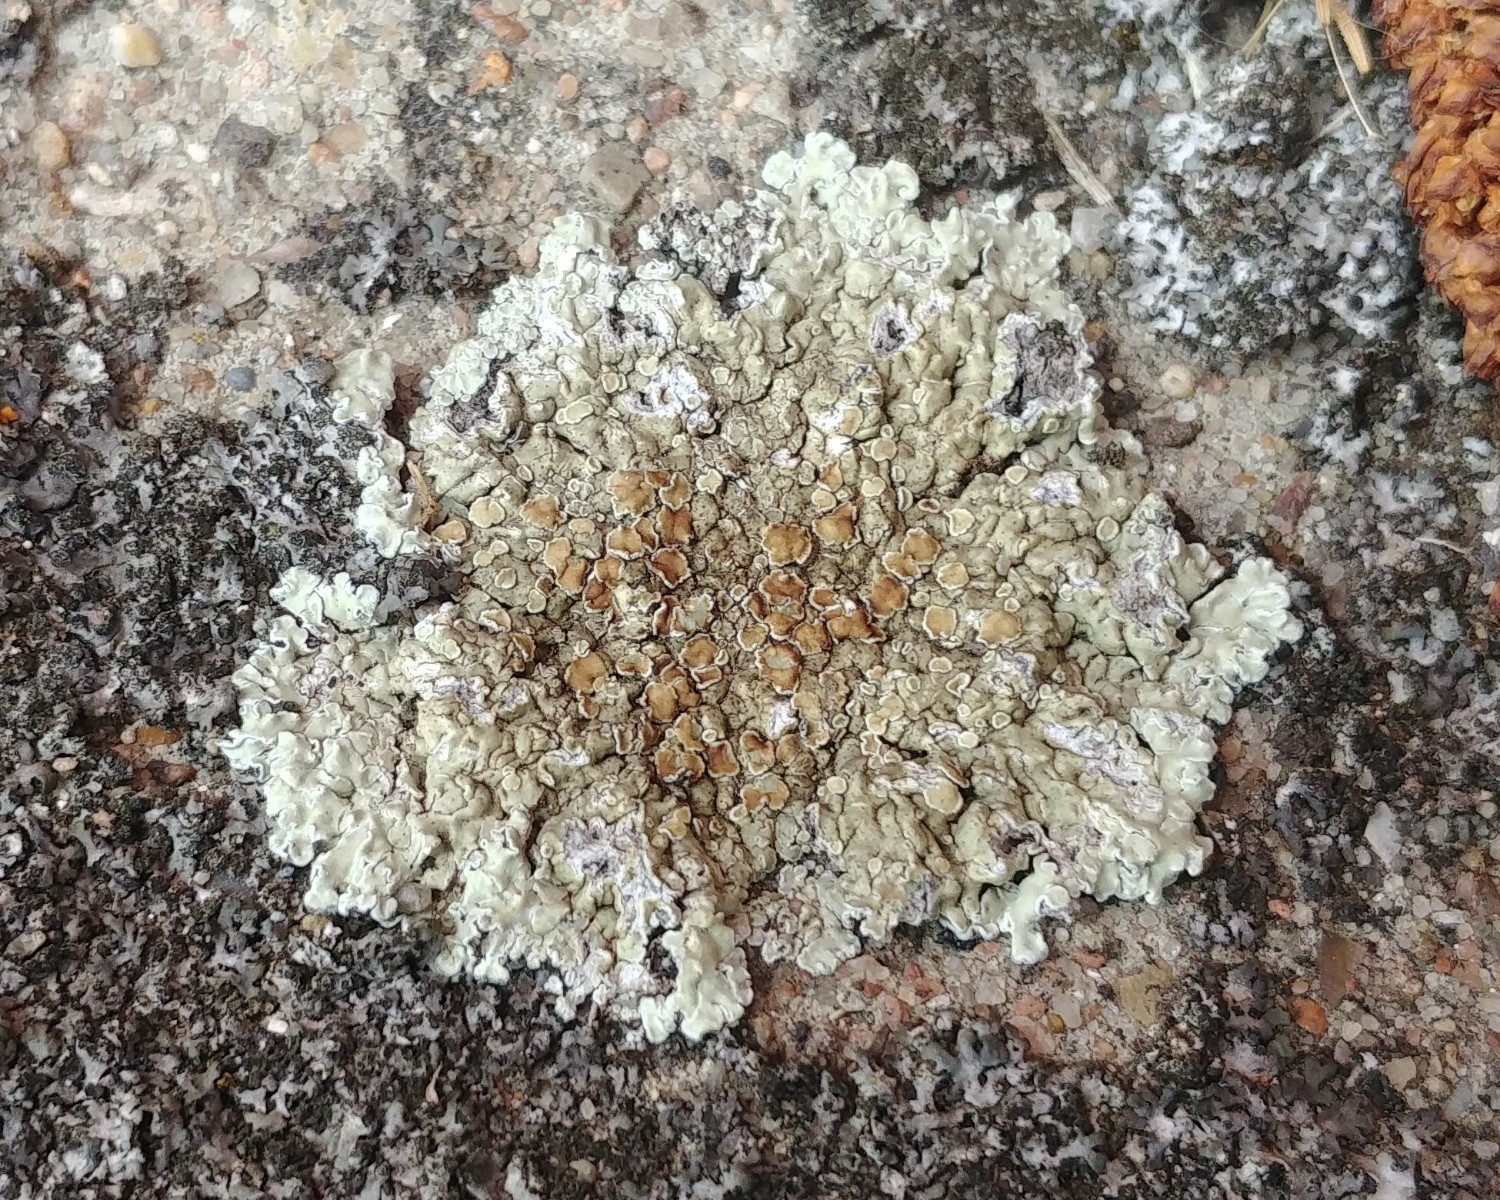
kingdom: Fungi
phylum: Ascomycota
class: Lecanoromycetes
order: Lecanorales
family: Lecanoraceae
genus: Protoparmeliopsis
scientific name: Protoparmeliopsis muralis
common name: randfliget kantskivelav
